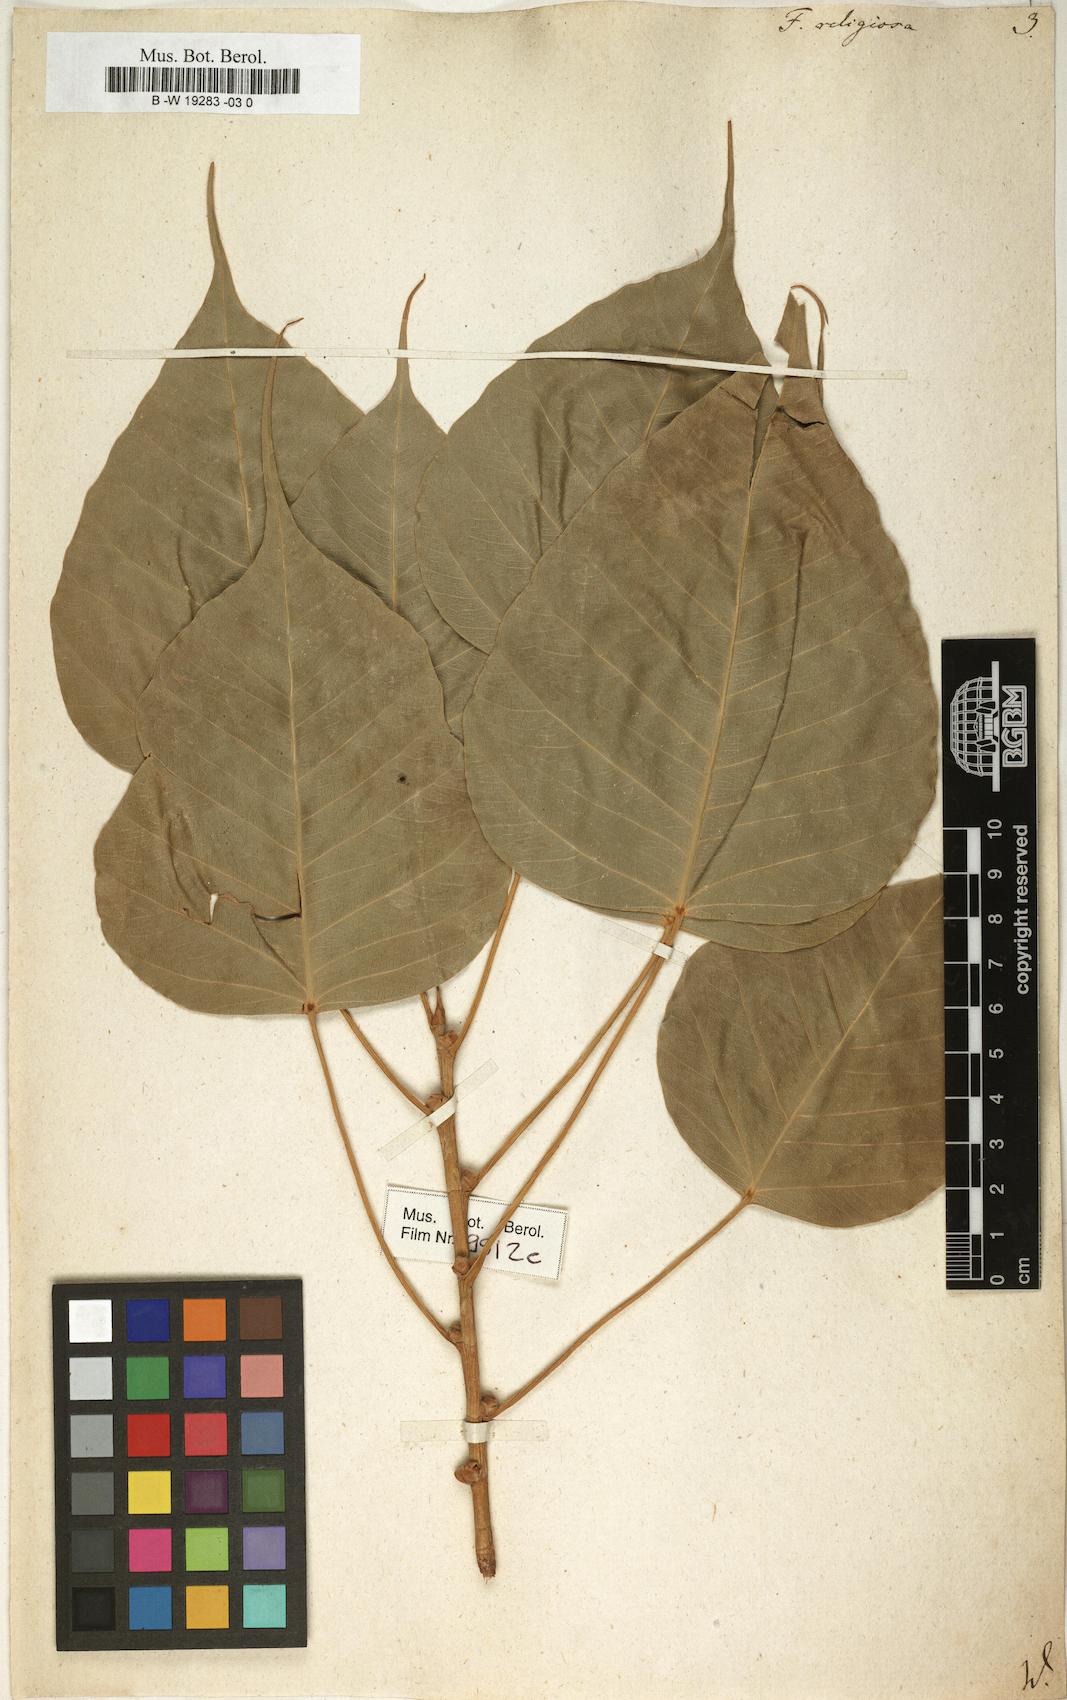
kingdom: Plantae
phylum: Tracheophyta
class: Magnoliopsida
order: Rosales
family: Moraceae
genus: Ficus
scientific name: Ficus religiosa
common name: Bodhi tree
